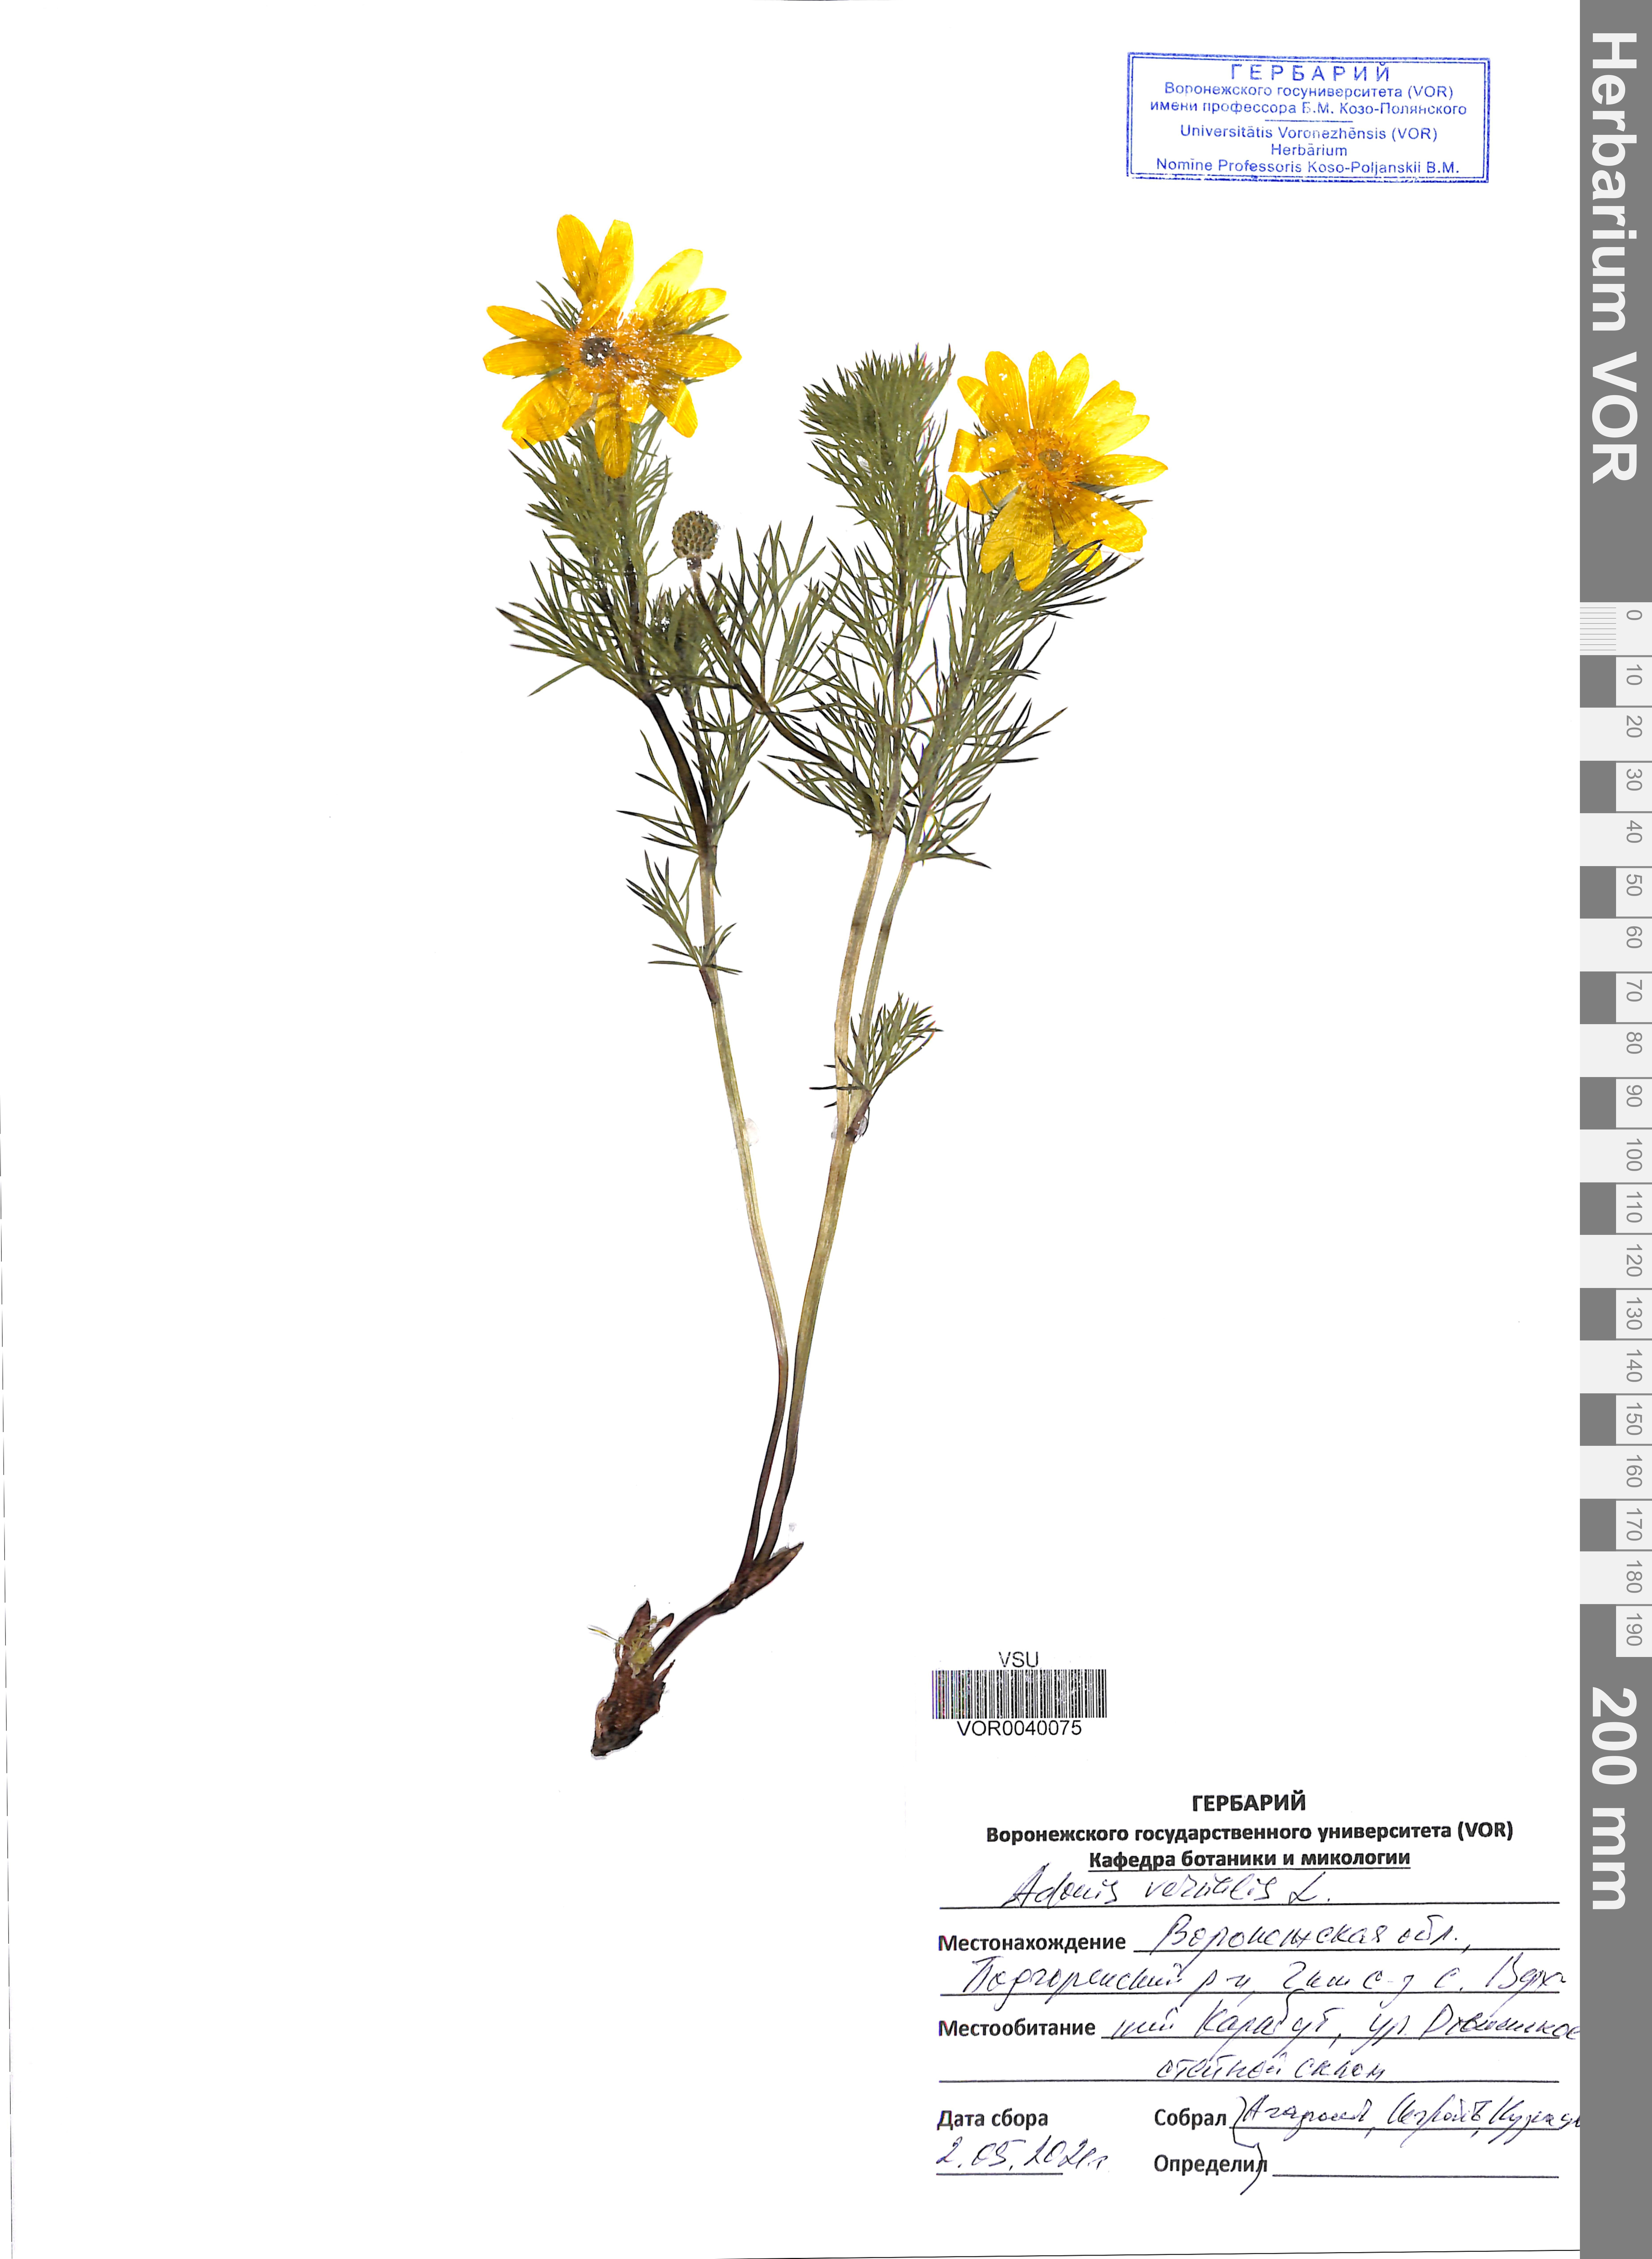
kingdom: Plantae
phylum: Tracheophyta
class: Magnoliopsida
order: Ranunculales
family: Ranunculaceae
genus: Adonis
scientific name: Adonis vernalis
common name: Yellow pheasants-eye
